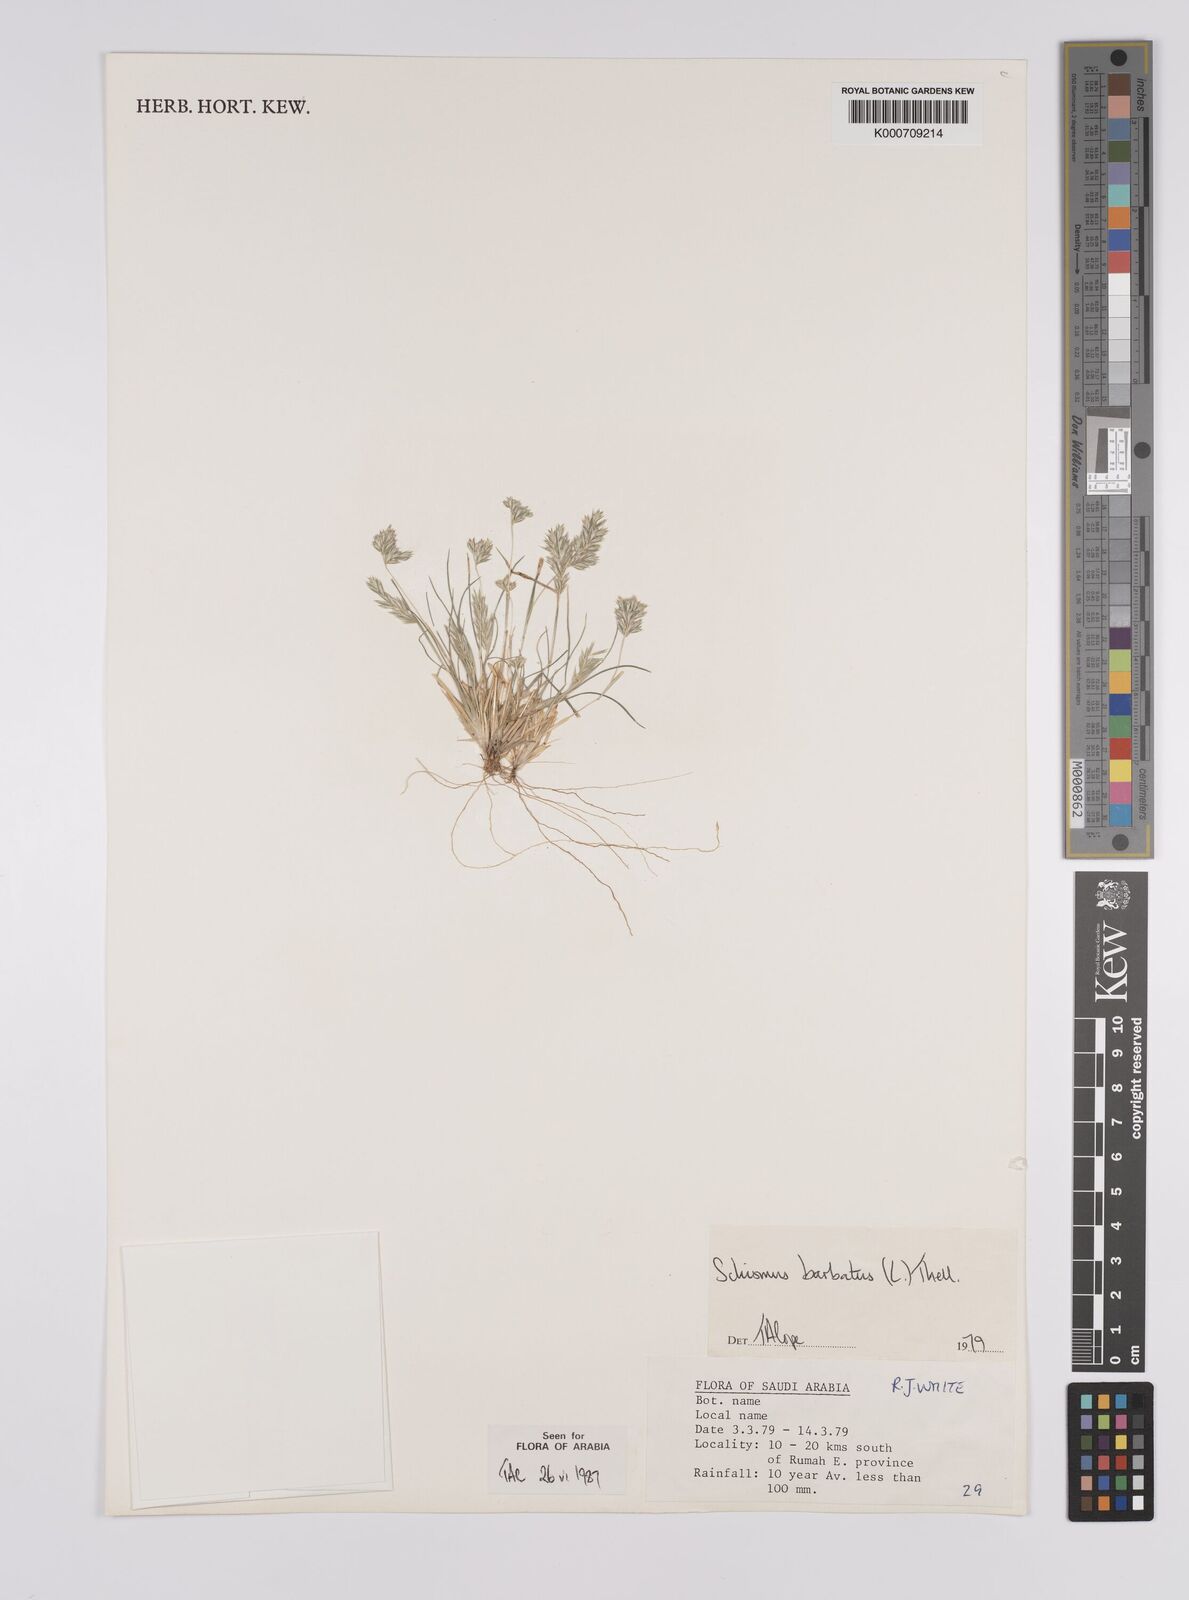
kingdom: Plantae
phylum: Tracheophyta
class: Liliopsida
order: Poales
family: Poaceae
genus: Schismus
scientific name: Schismus barbatus
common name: Kelch-grass
